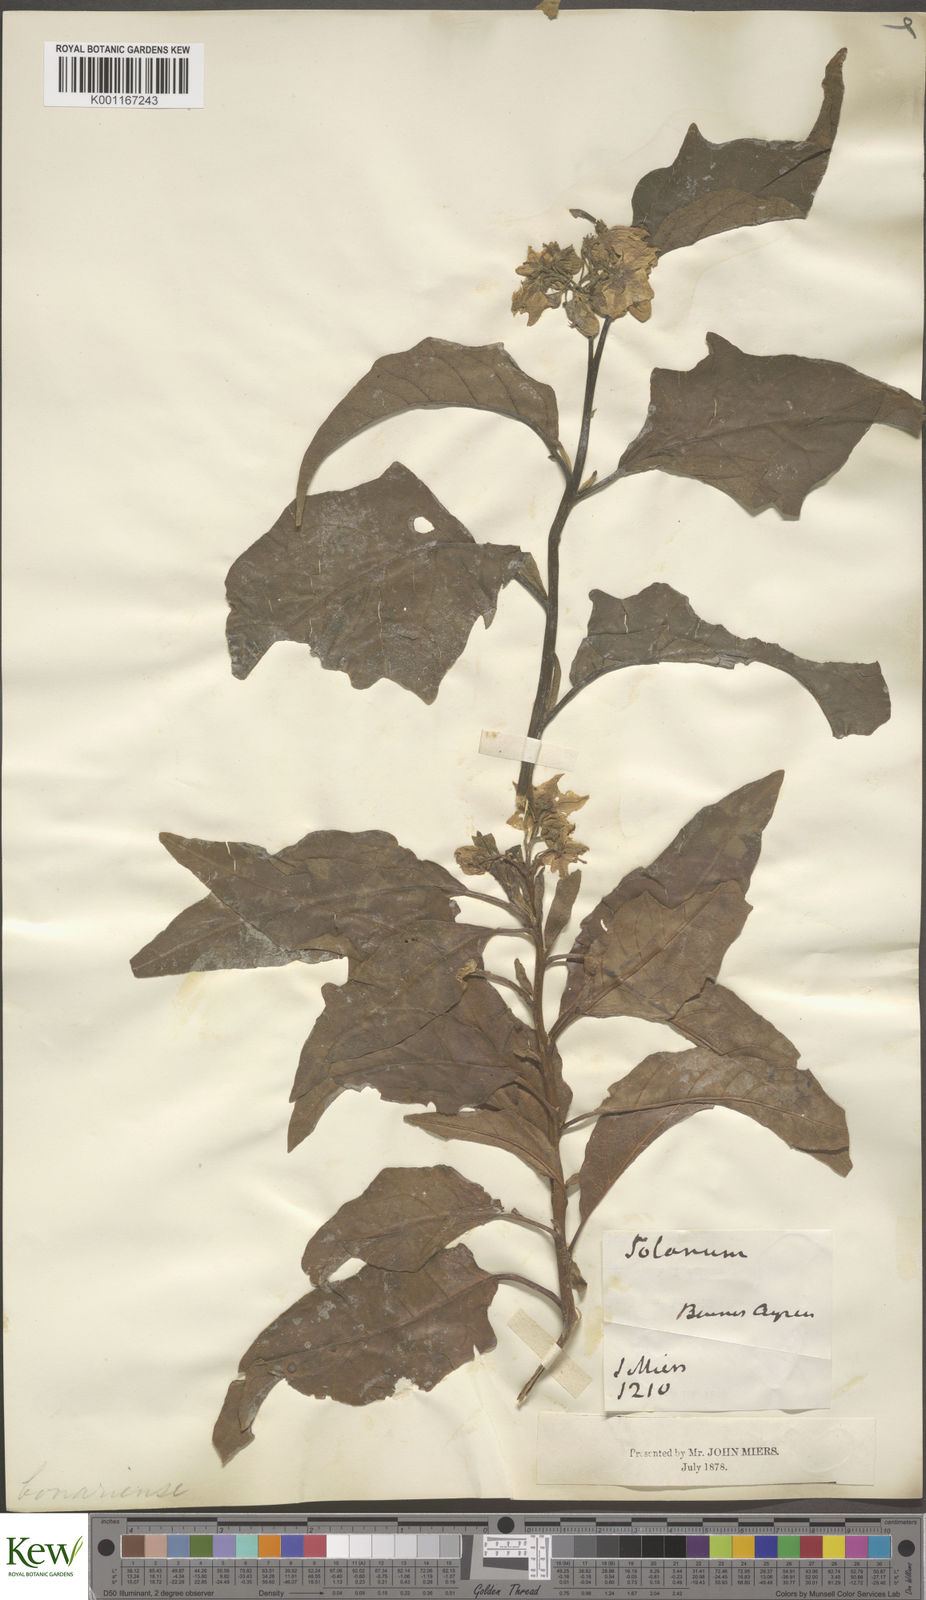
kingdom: Plantae
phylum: Tracheophyta
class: Magnoliopsida
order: Solanales
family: Solanaceae
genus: Solanum
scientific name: Solanum bonariense
